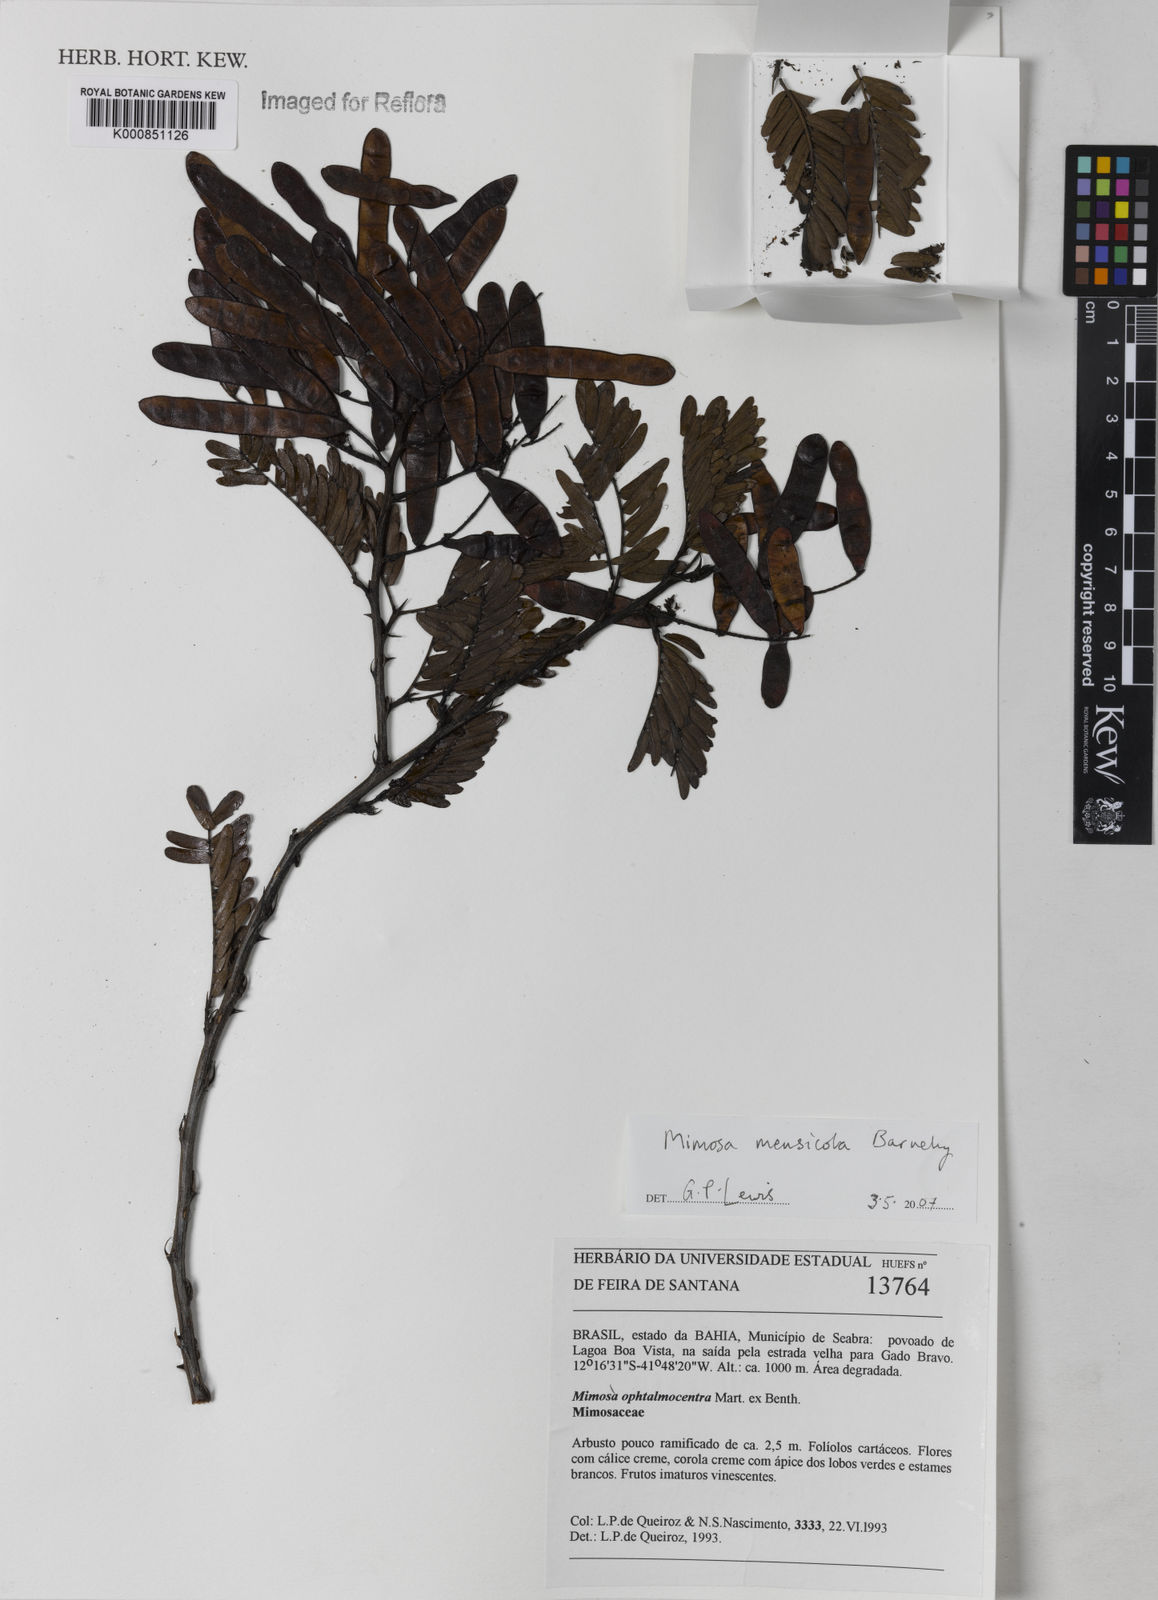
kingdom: Plantae
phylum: Tracheophyta
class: Magnoliopsida
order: Fabales
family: Fabaceae
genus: Mimosa
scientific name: Mimosa mensicola
